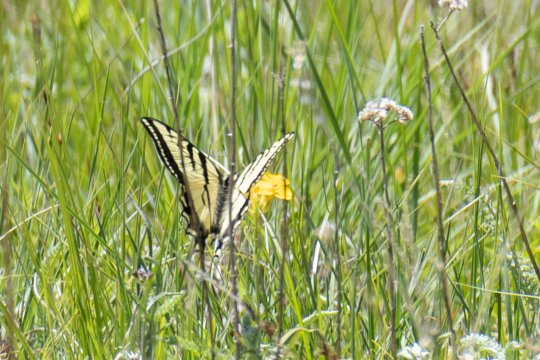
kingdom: Animalia
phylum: Arthropoda
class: Insecta
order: Lepidoptera
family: Papilionidae
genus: Pterourus
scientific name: Pterourus rutulus
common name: Western Tiger Swallowtail
